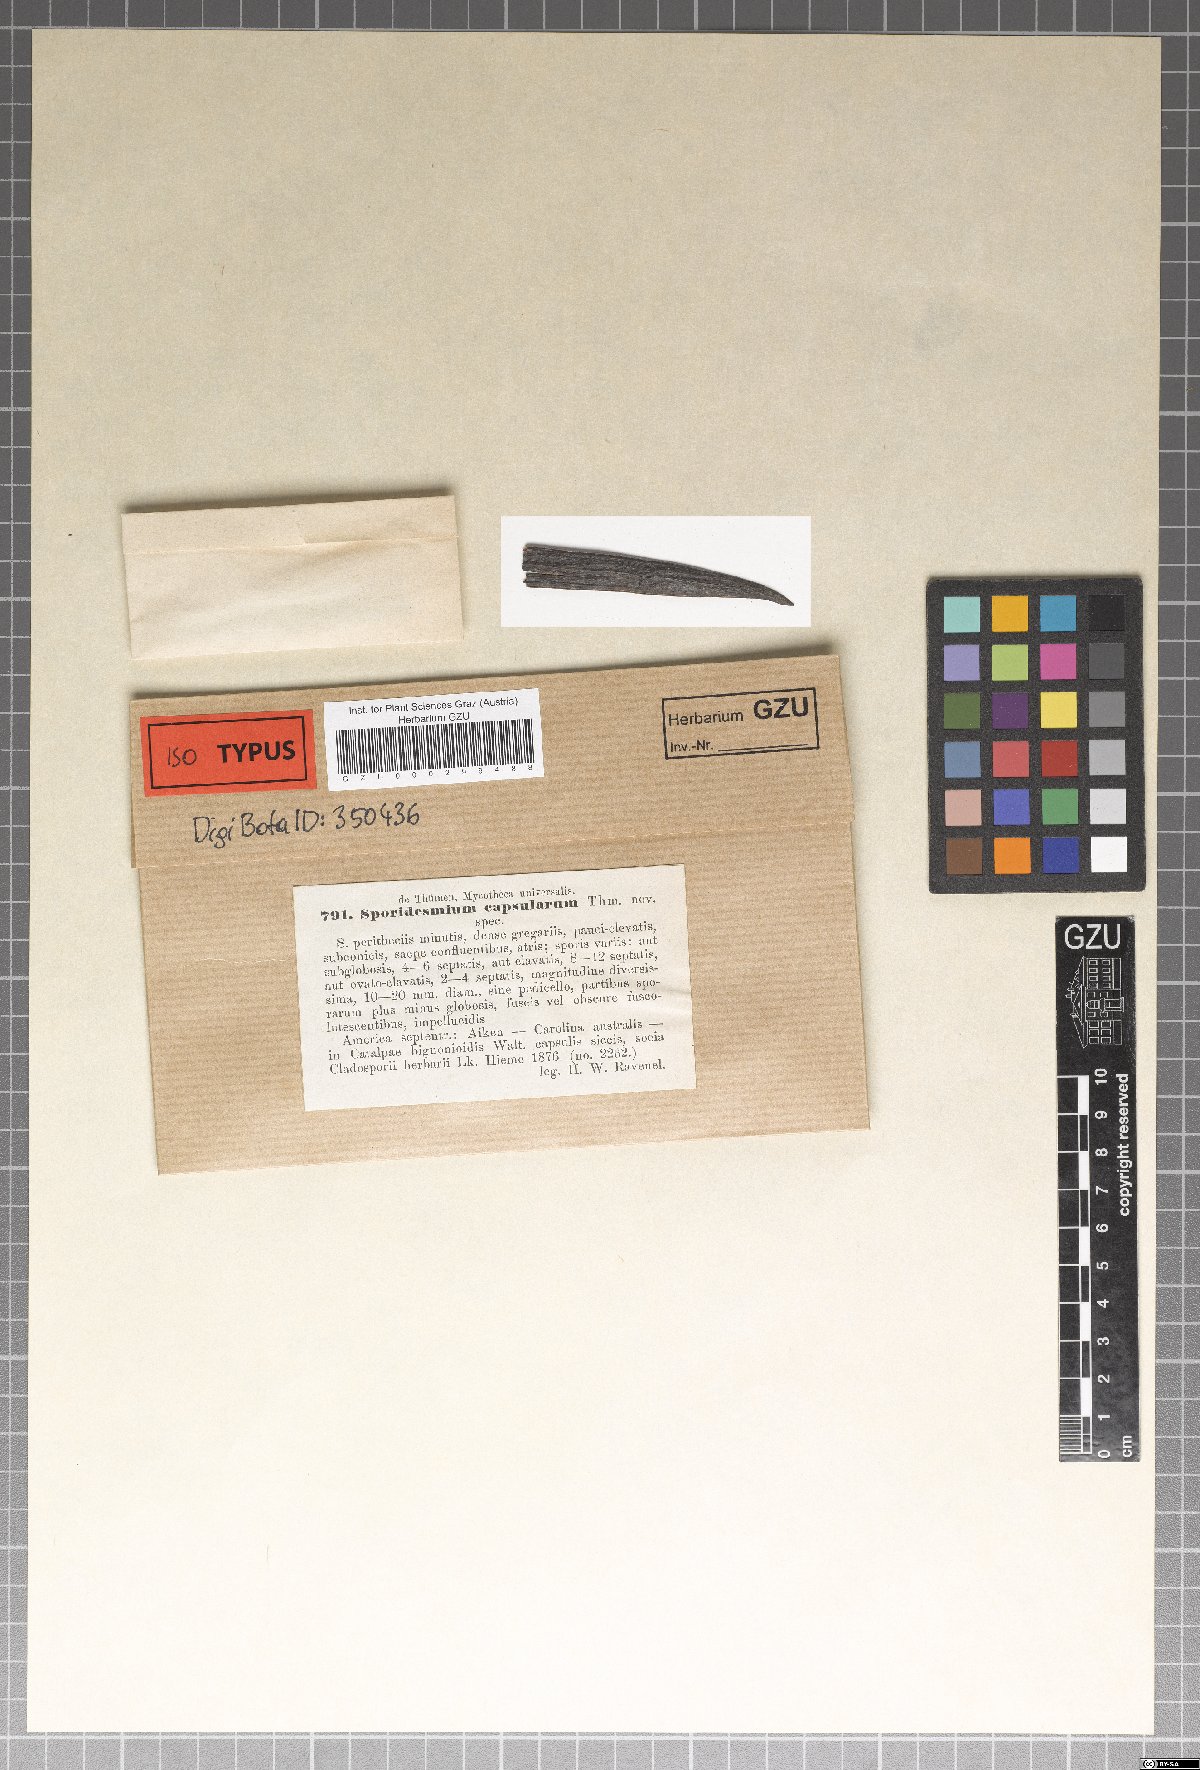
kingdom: Fungi
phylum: Ascomycota
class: Dothideomycetes
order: Pleosporales
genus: Sporidesmium
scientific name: Sporidesmium
